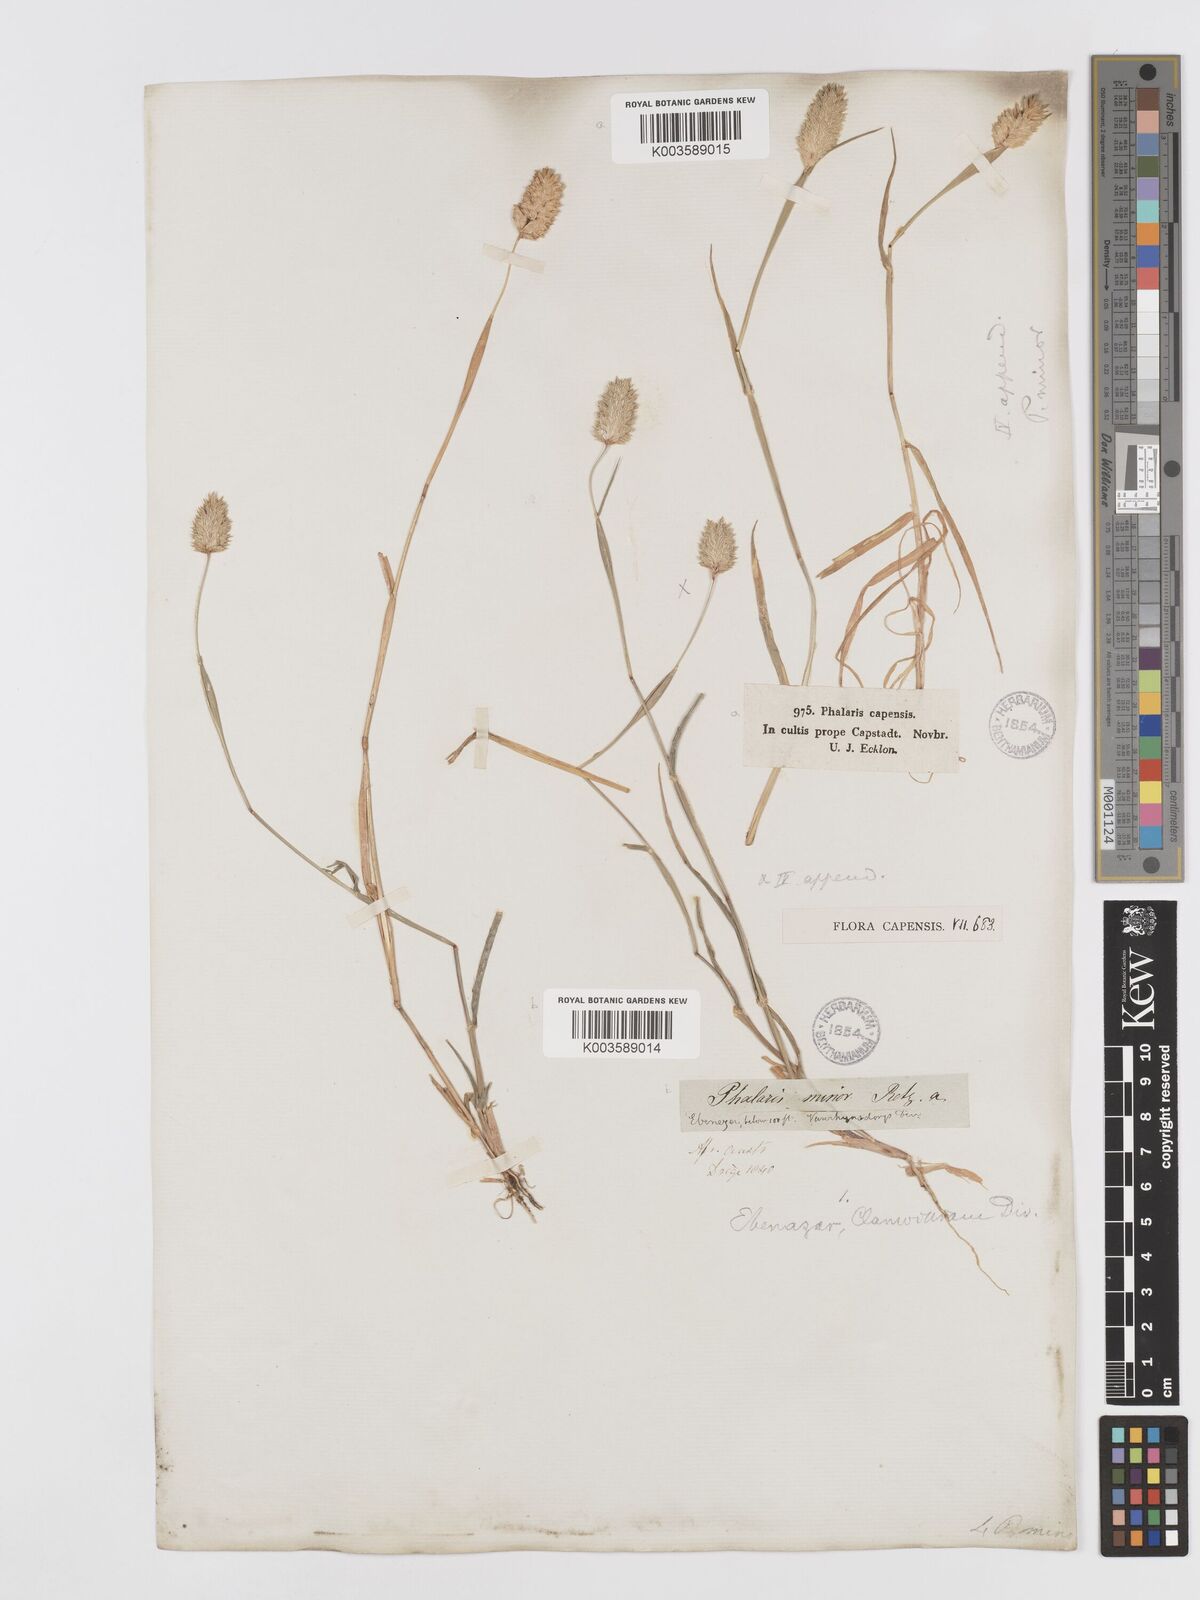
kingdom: Plantae
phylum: Tracheophyta
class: Liliopsida
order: Poales
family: Poaceae
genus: Phalaris
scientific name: Phalaris minor
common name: Littleseed canarygrass
